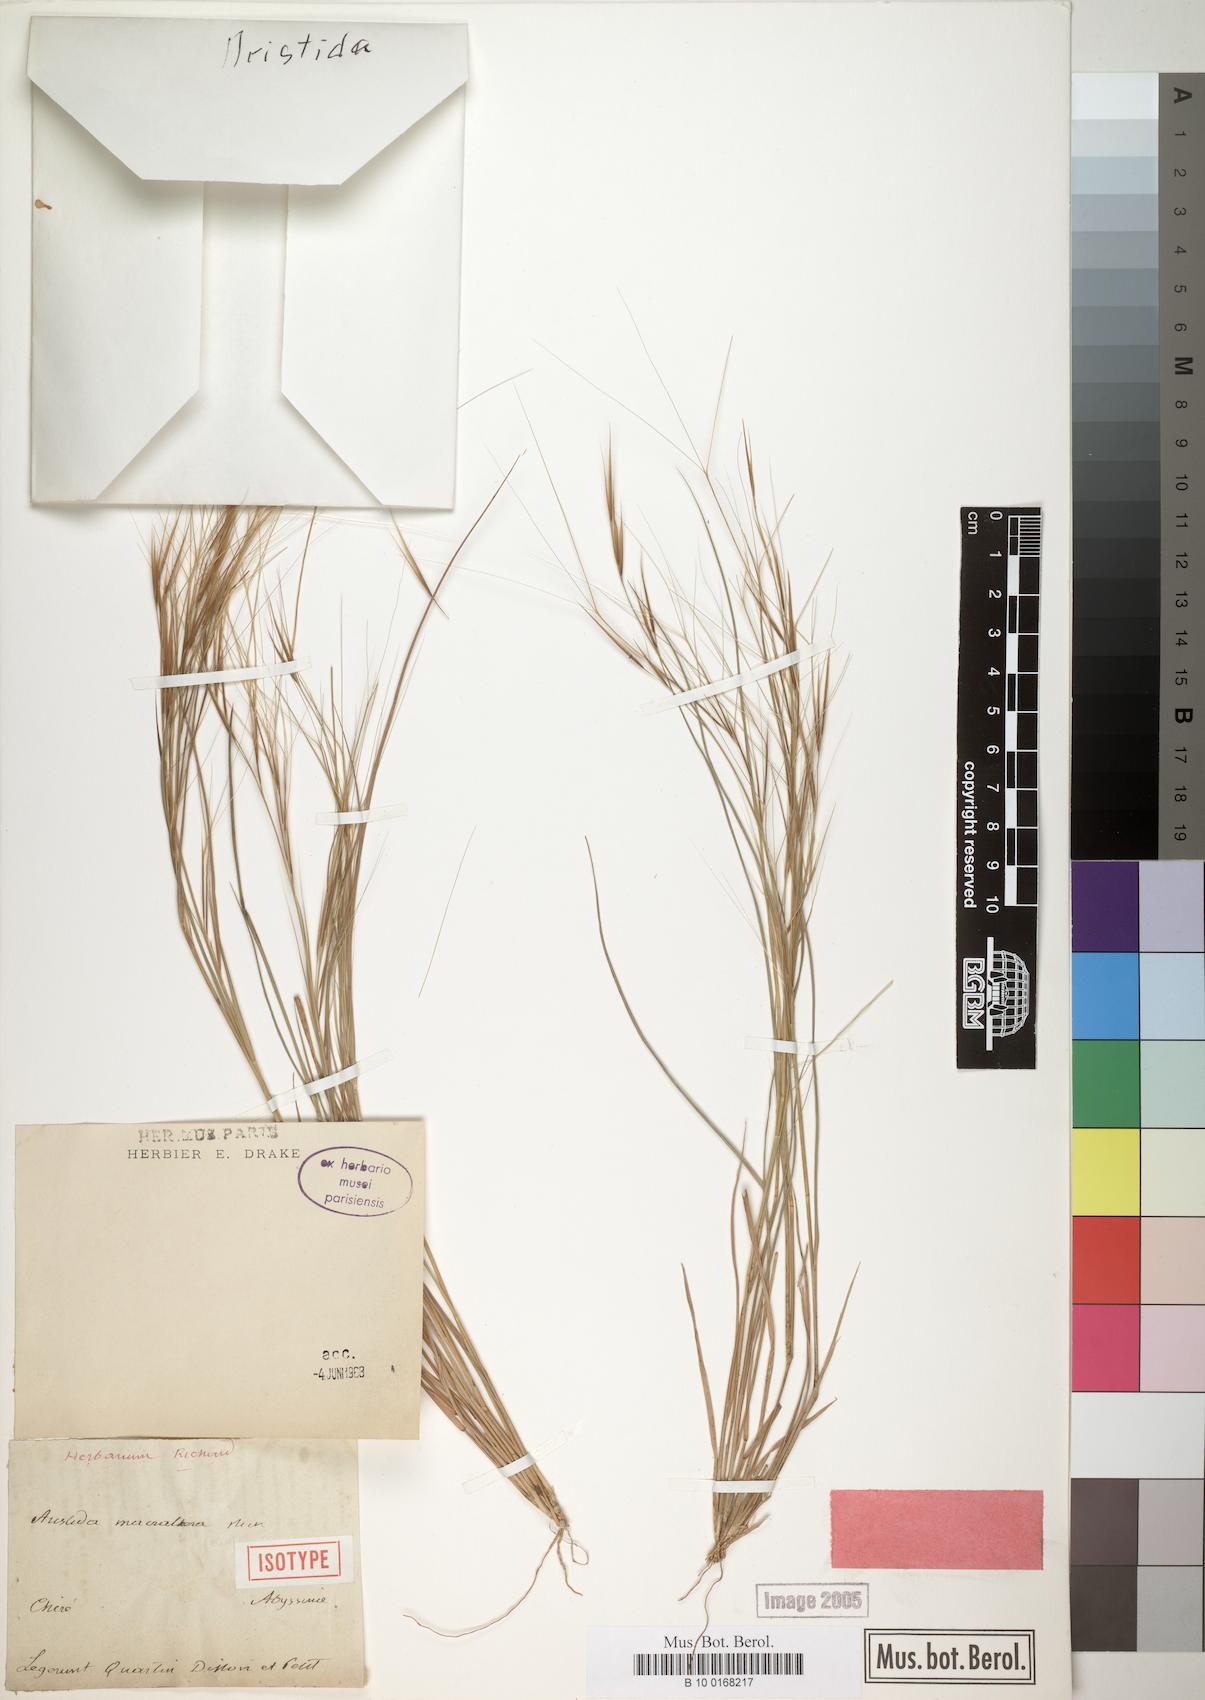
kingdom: Plantae
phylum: Tracheophyta
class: Liliopsida
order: Poales
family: Poaceae
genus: Aristida
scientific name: Aristida funiculata
